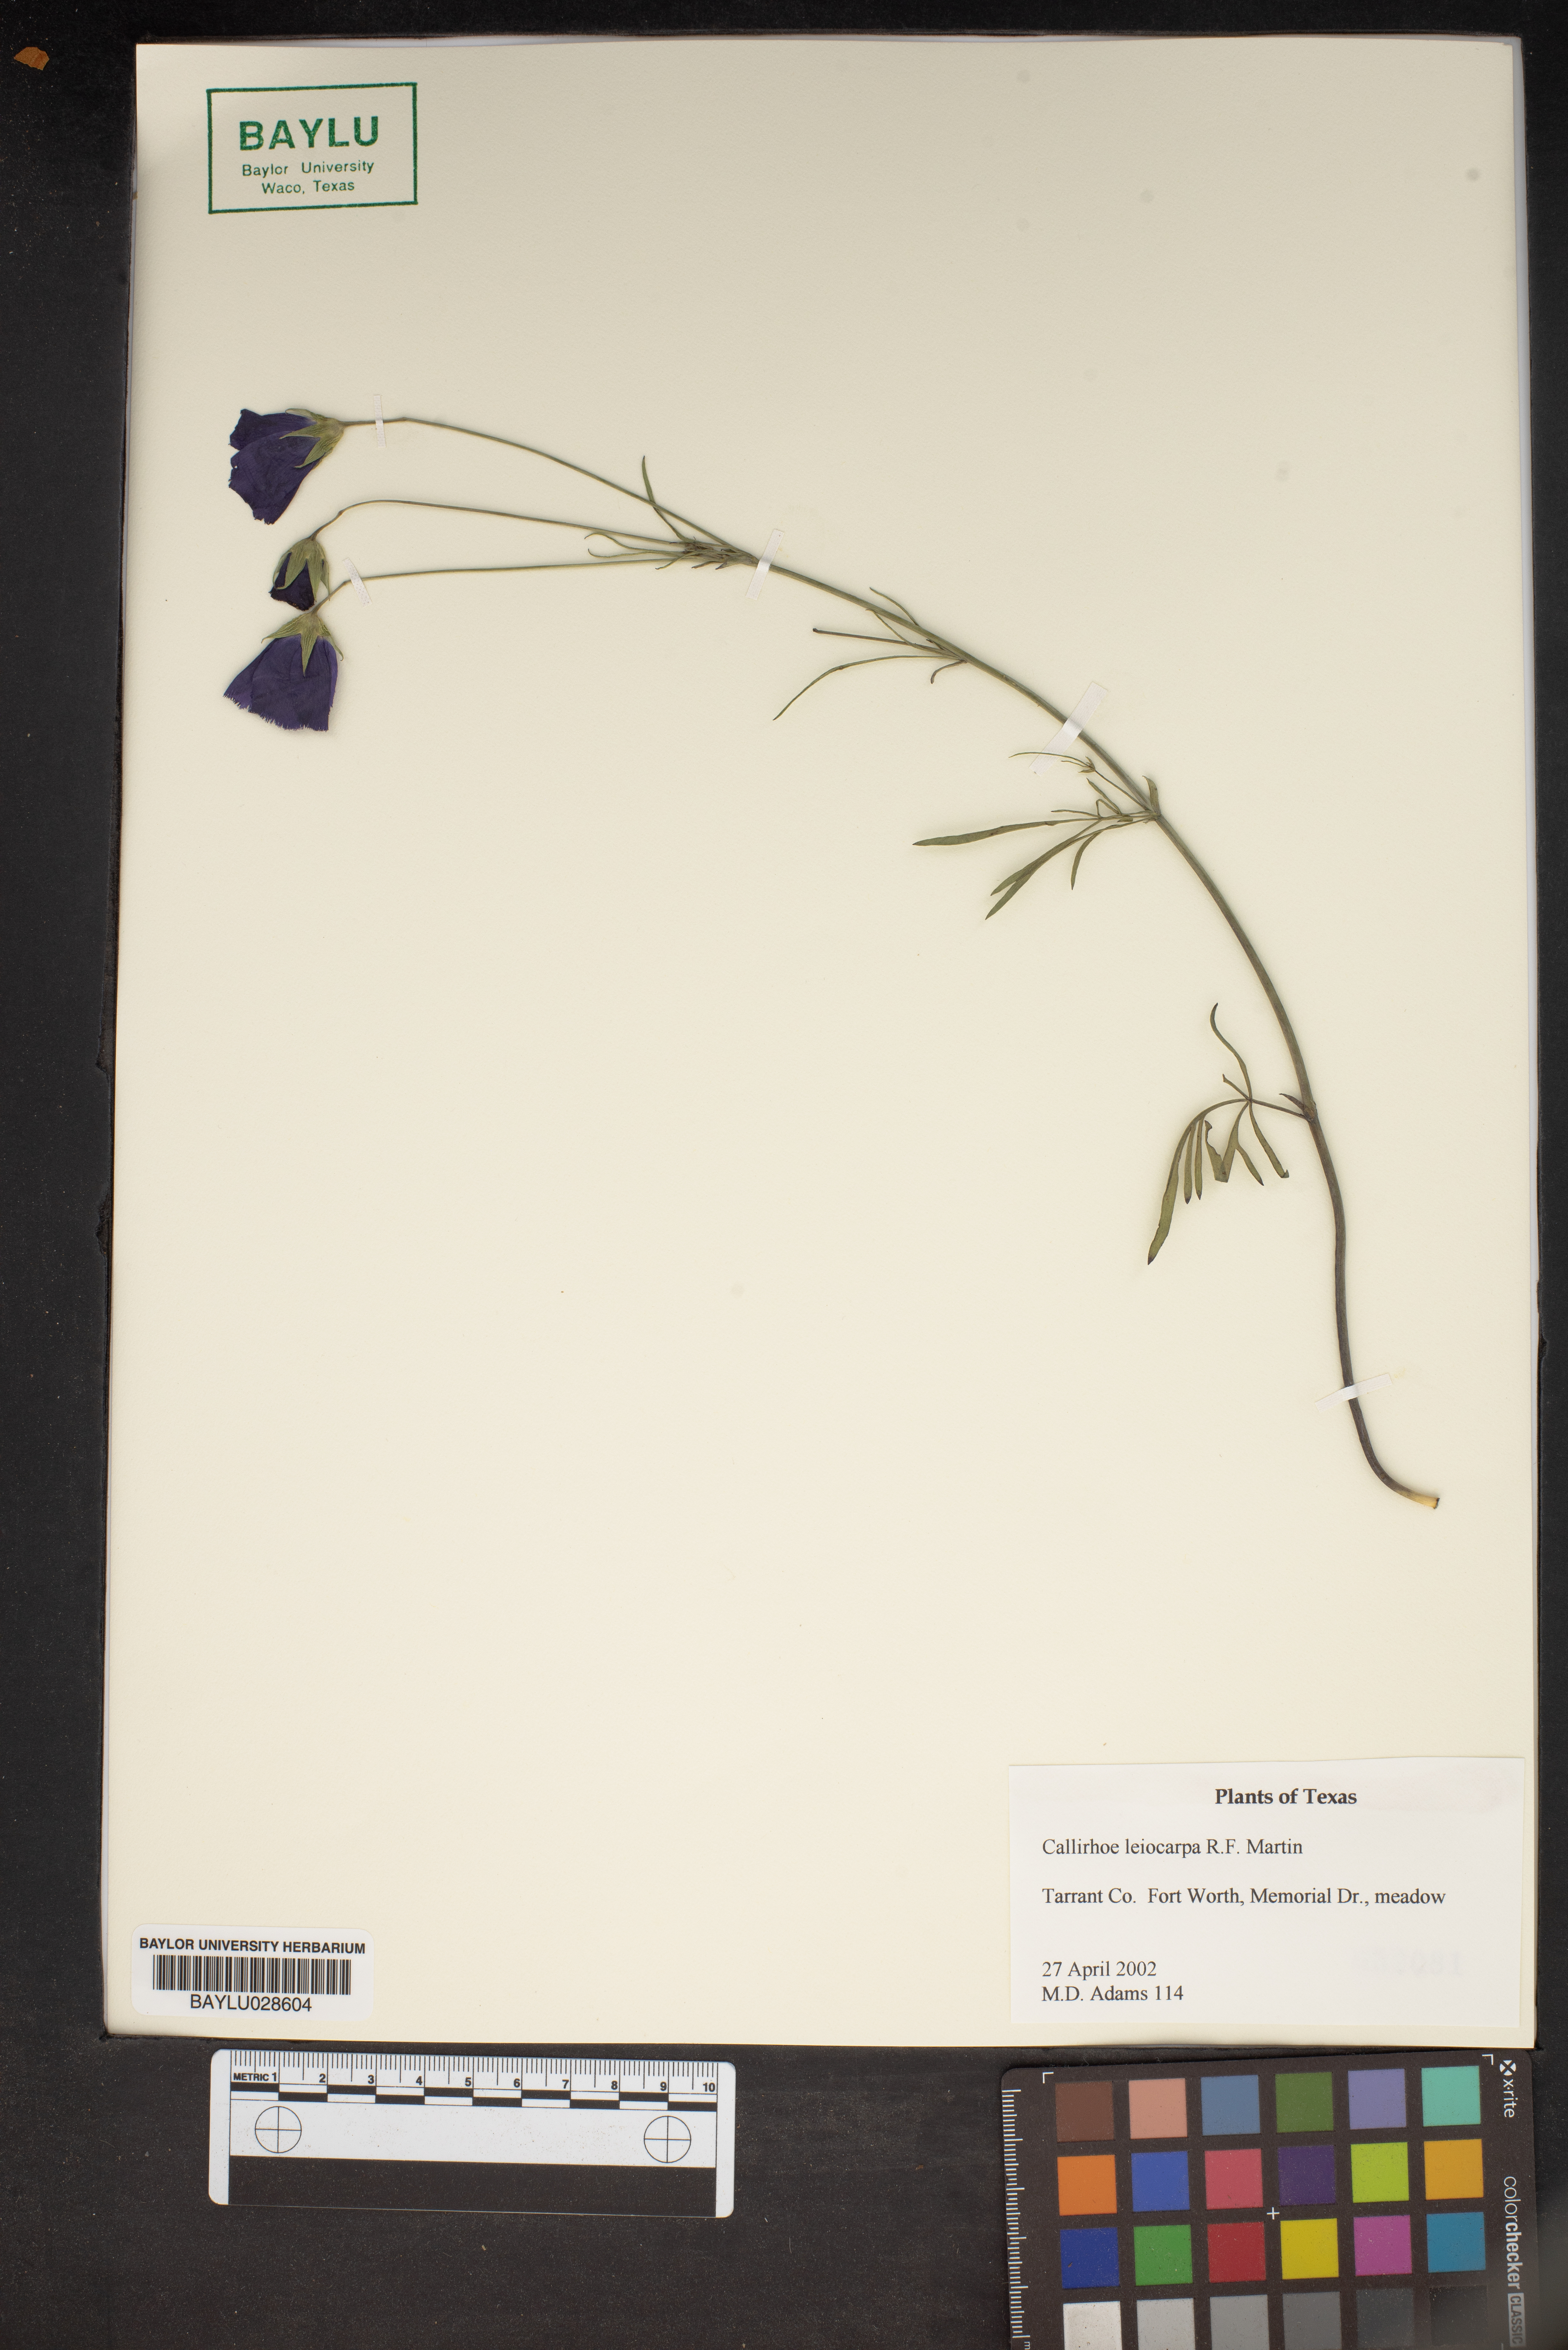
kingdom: Plantae
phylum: Tracheophyta
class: Magnoliopsida
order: Malvales
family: Malvaceae
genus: Callirhoe
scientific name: Callirhoe leiocarpa
